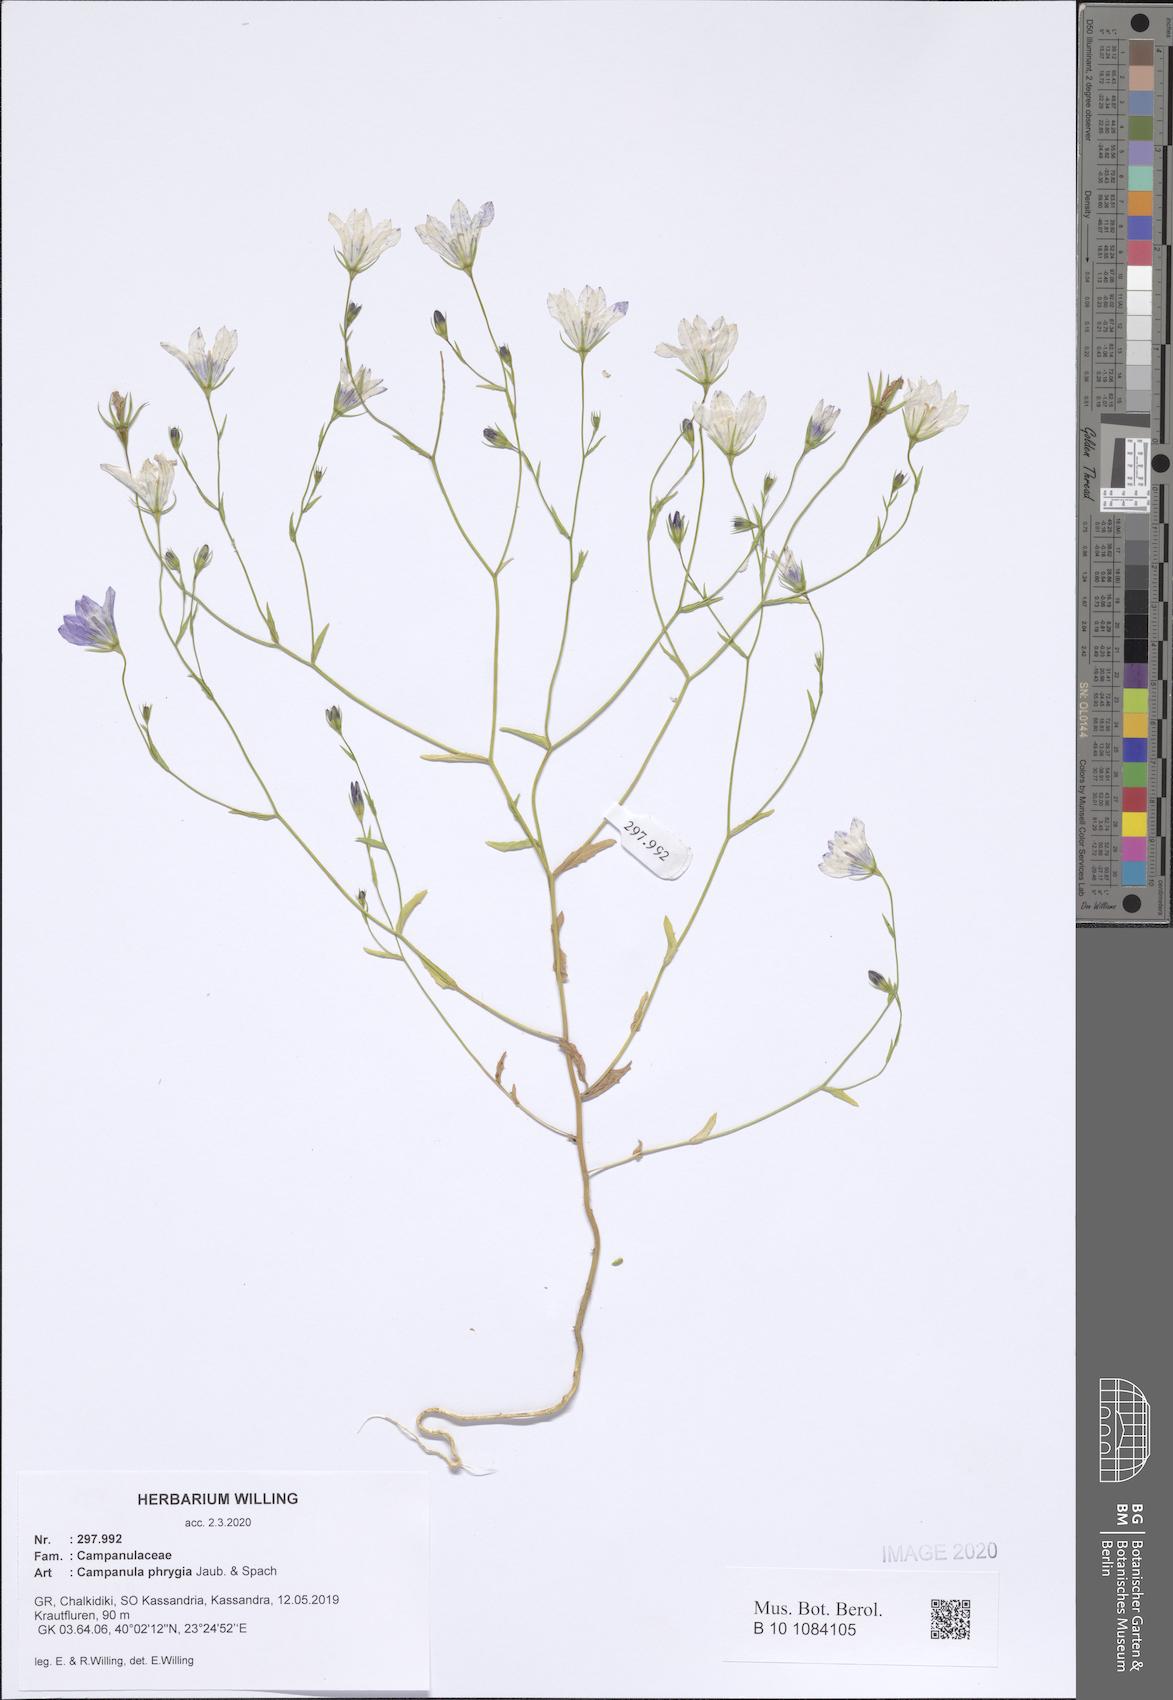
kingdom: Plantae
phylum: Tracheophyta
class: Magnoliopsida
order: Asterales
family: Campanulaceae
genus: Campanula
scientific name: Campanula phrygia
